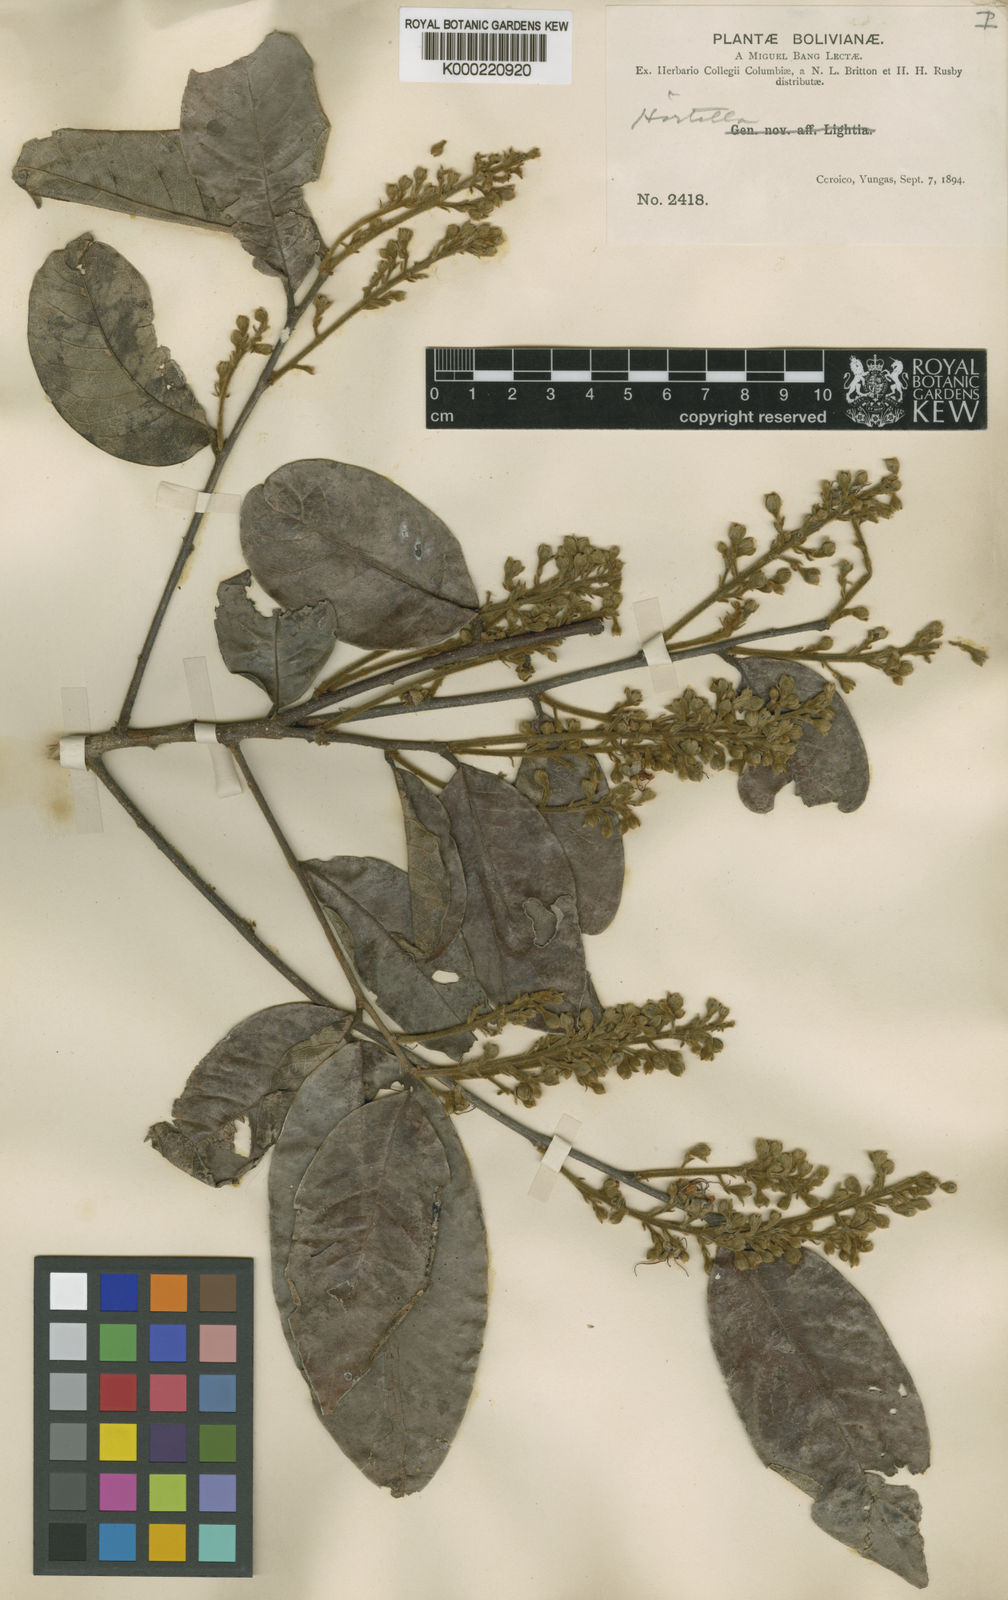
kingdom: Plantae
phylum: Tracheophyta
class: Magnoliopsida
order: Malpighiales
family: Chrysobalanaceae
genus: Hirtella
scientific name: Hirtella lightioides
